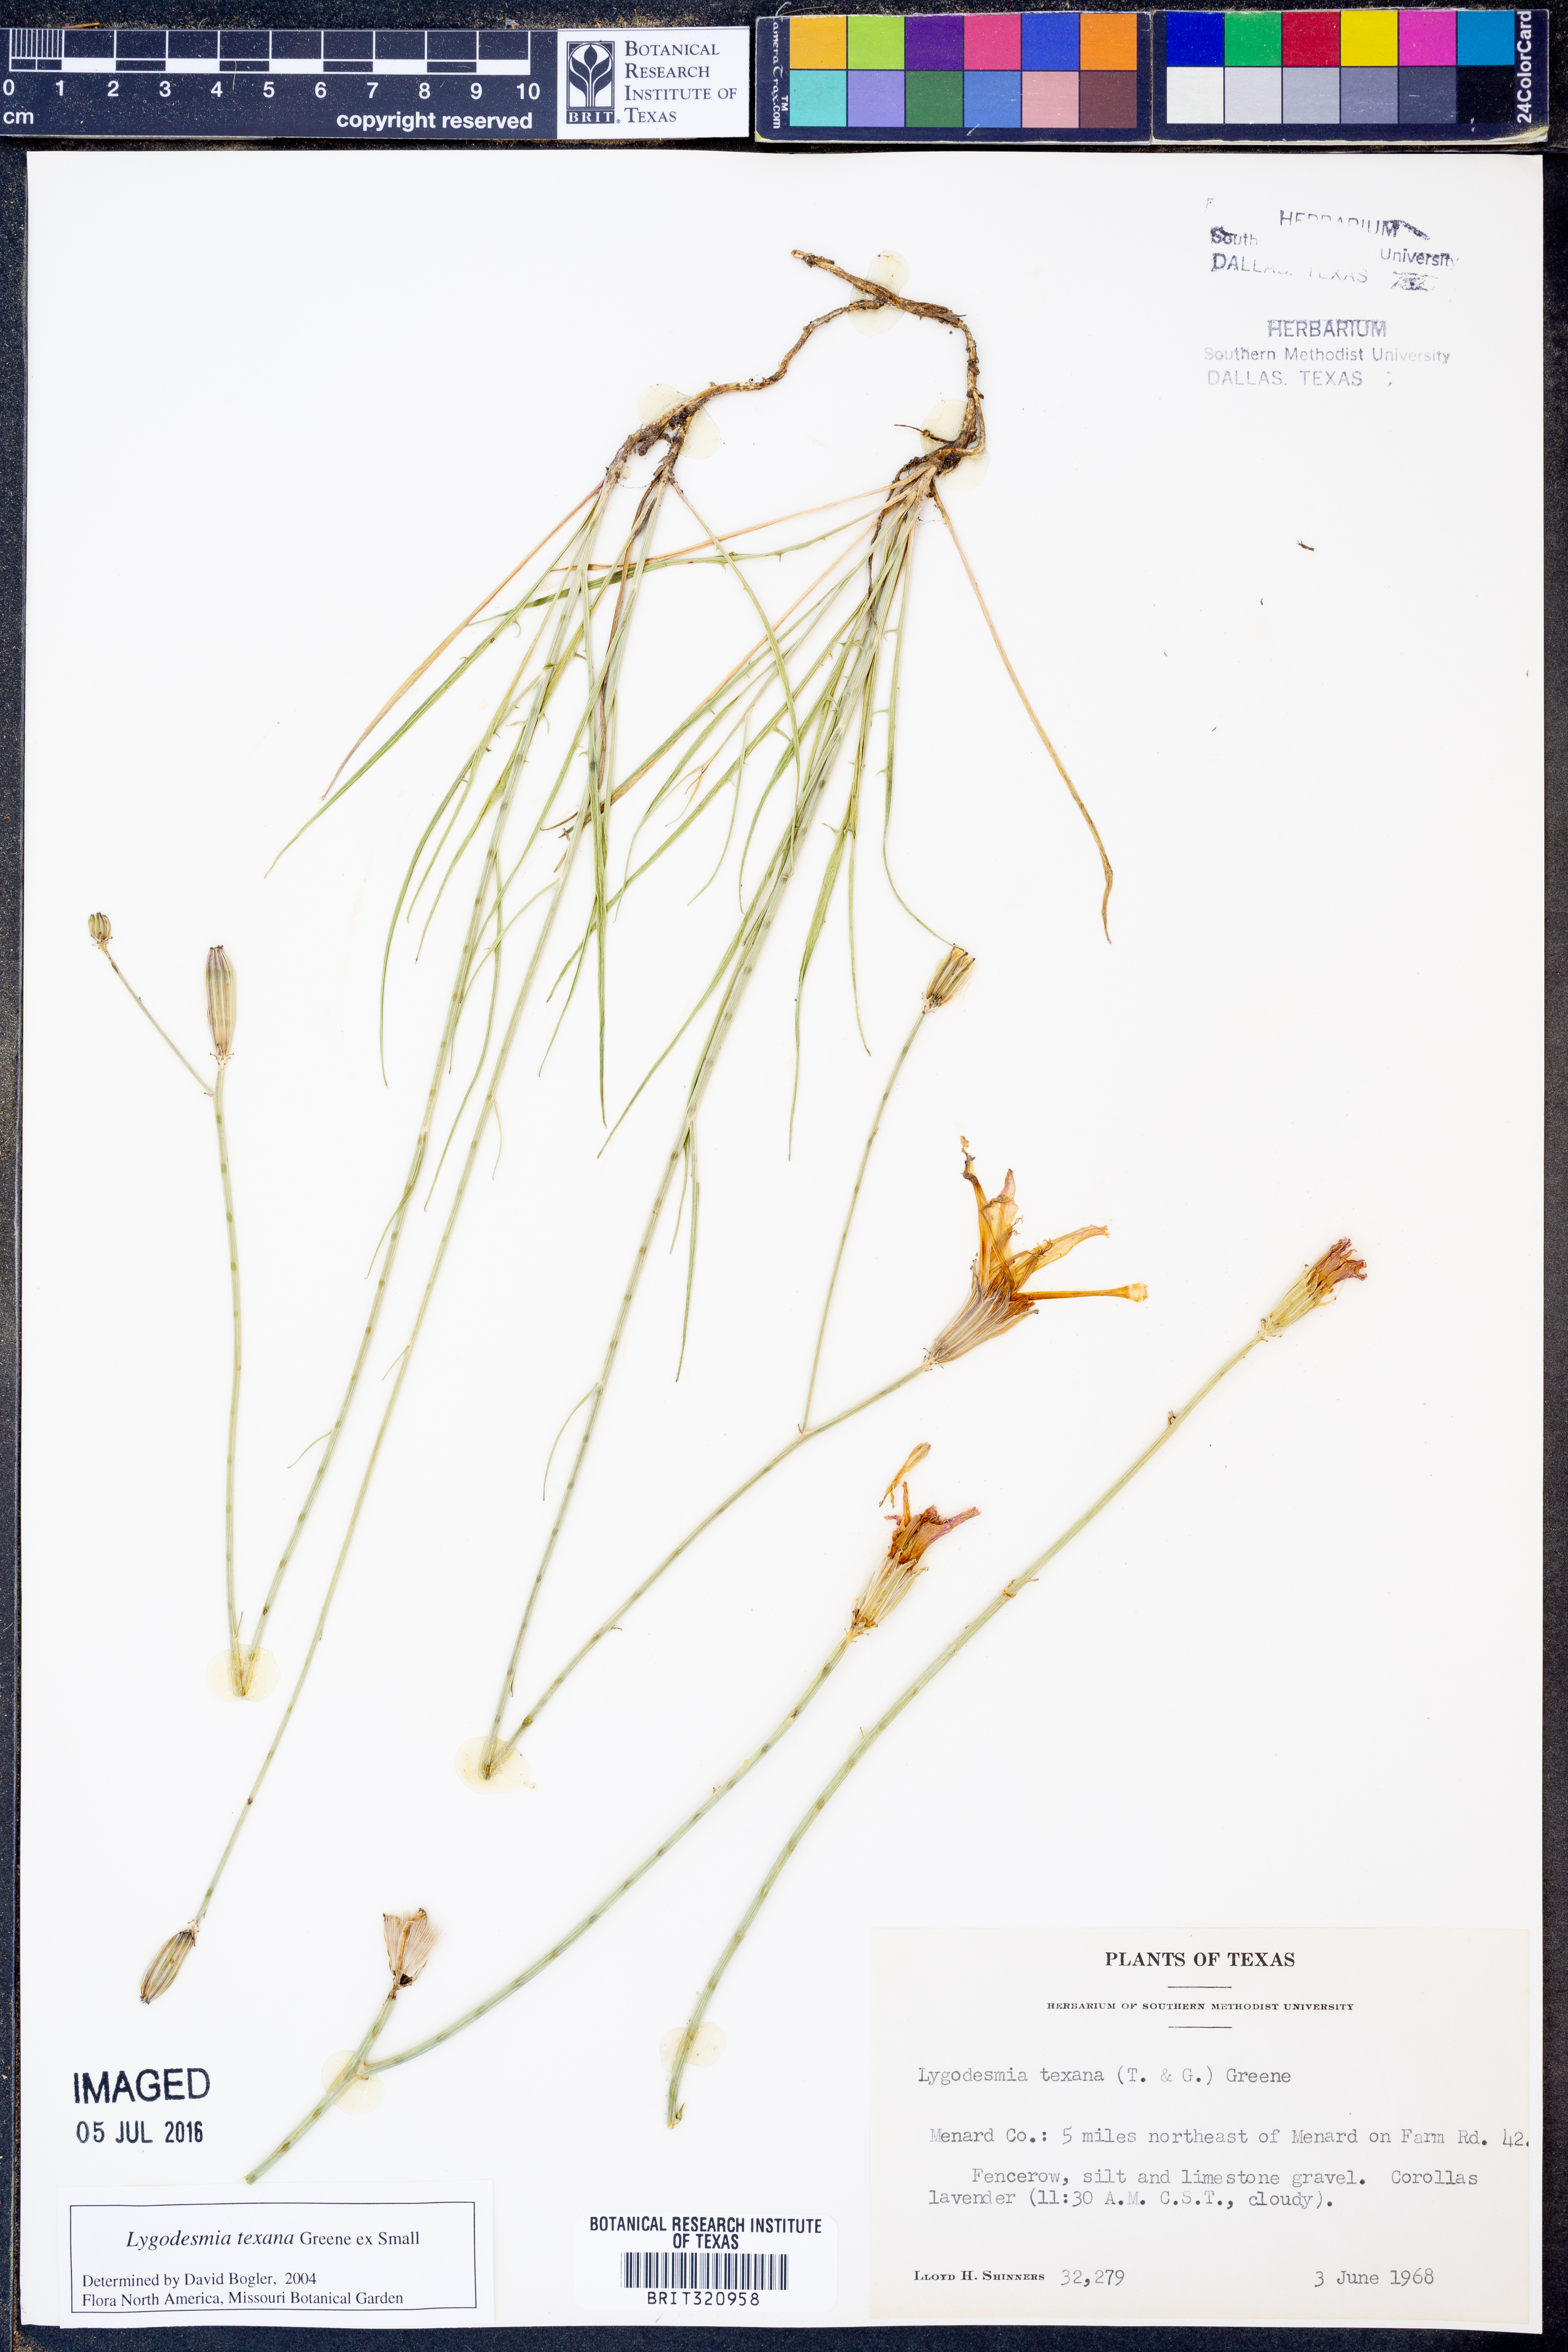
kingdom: Plantae
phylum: Tracheophyta
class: Magnoliopsida
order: Asterales
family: Asteraceae
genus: Lygodesmia
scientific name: Lygodesmia texana
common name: Texas skeleton-plant
